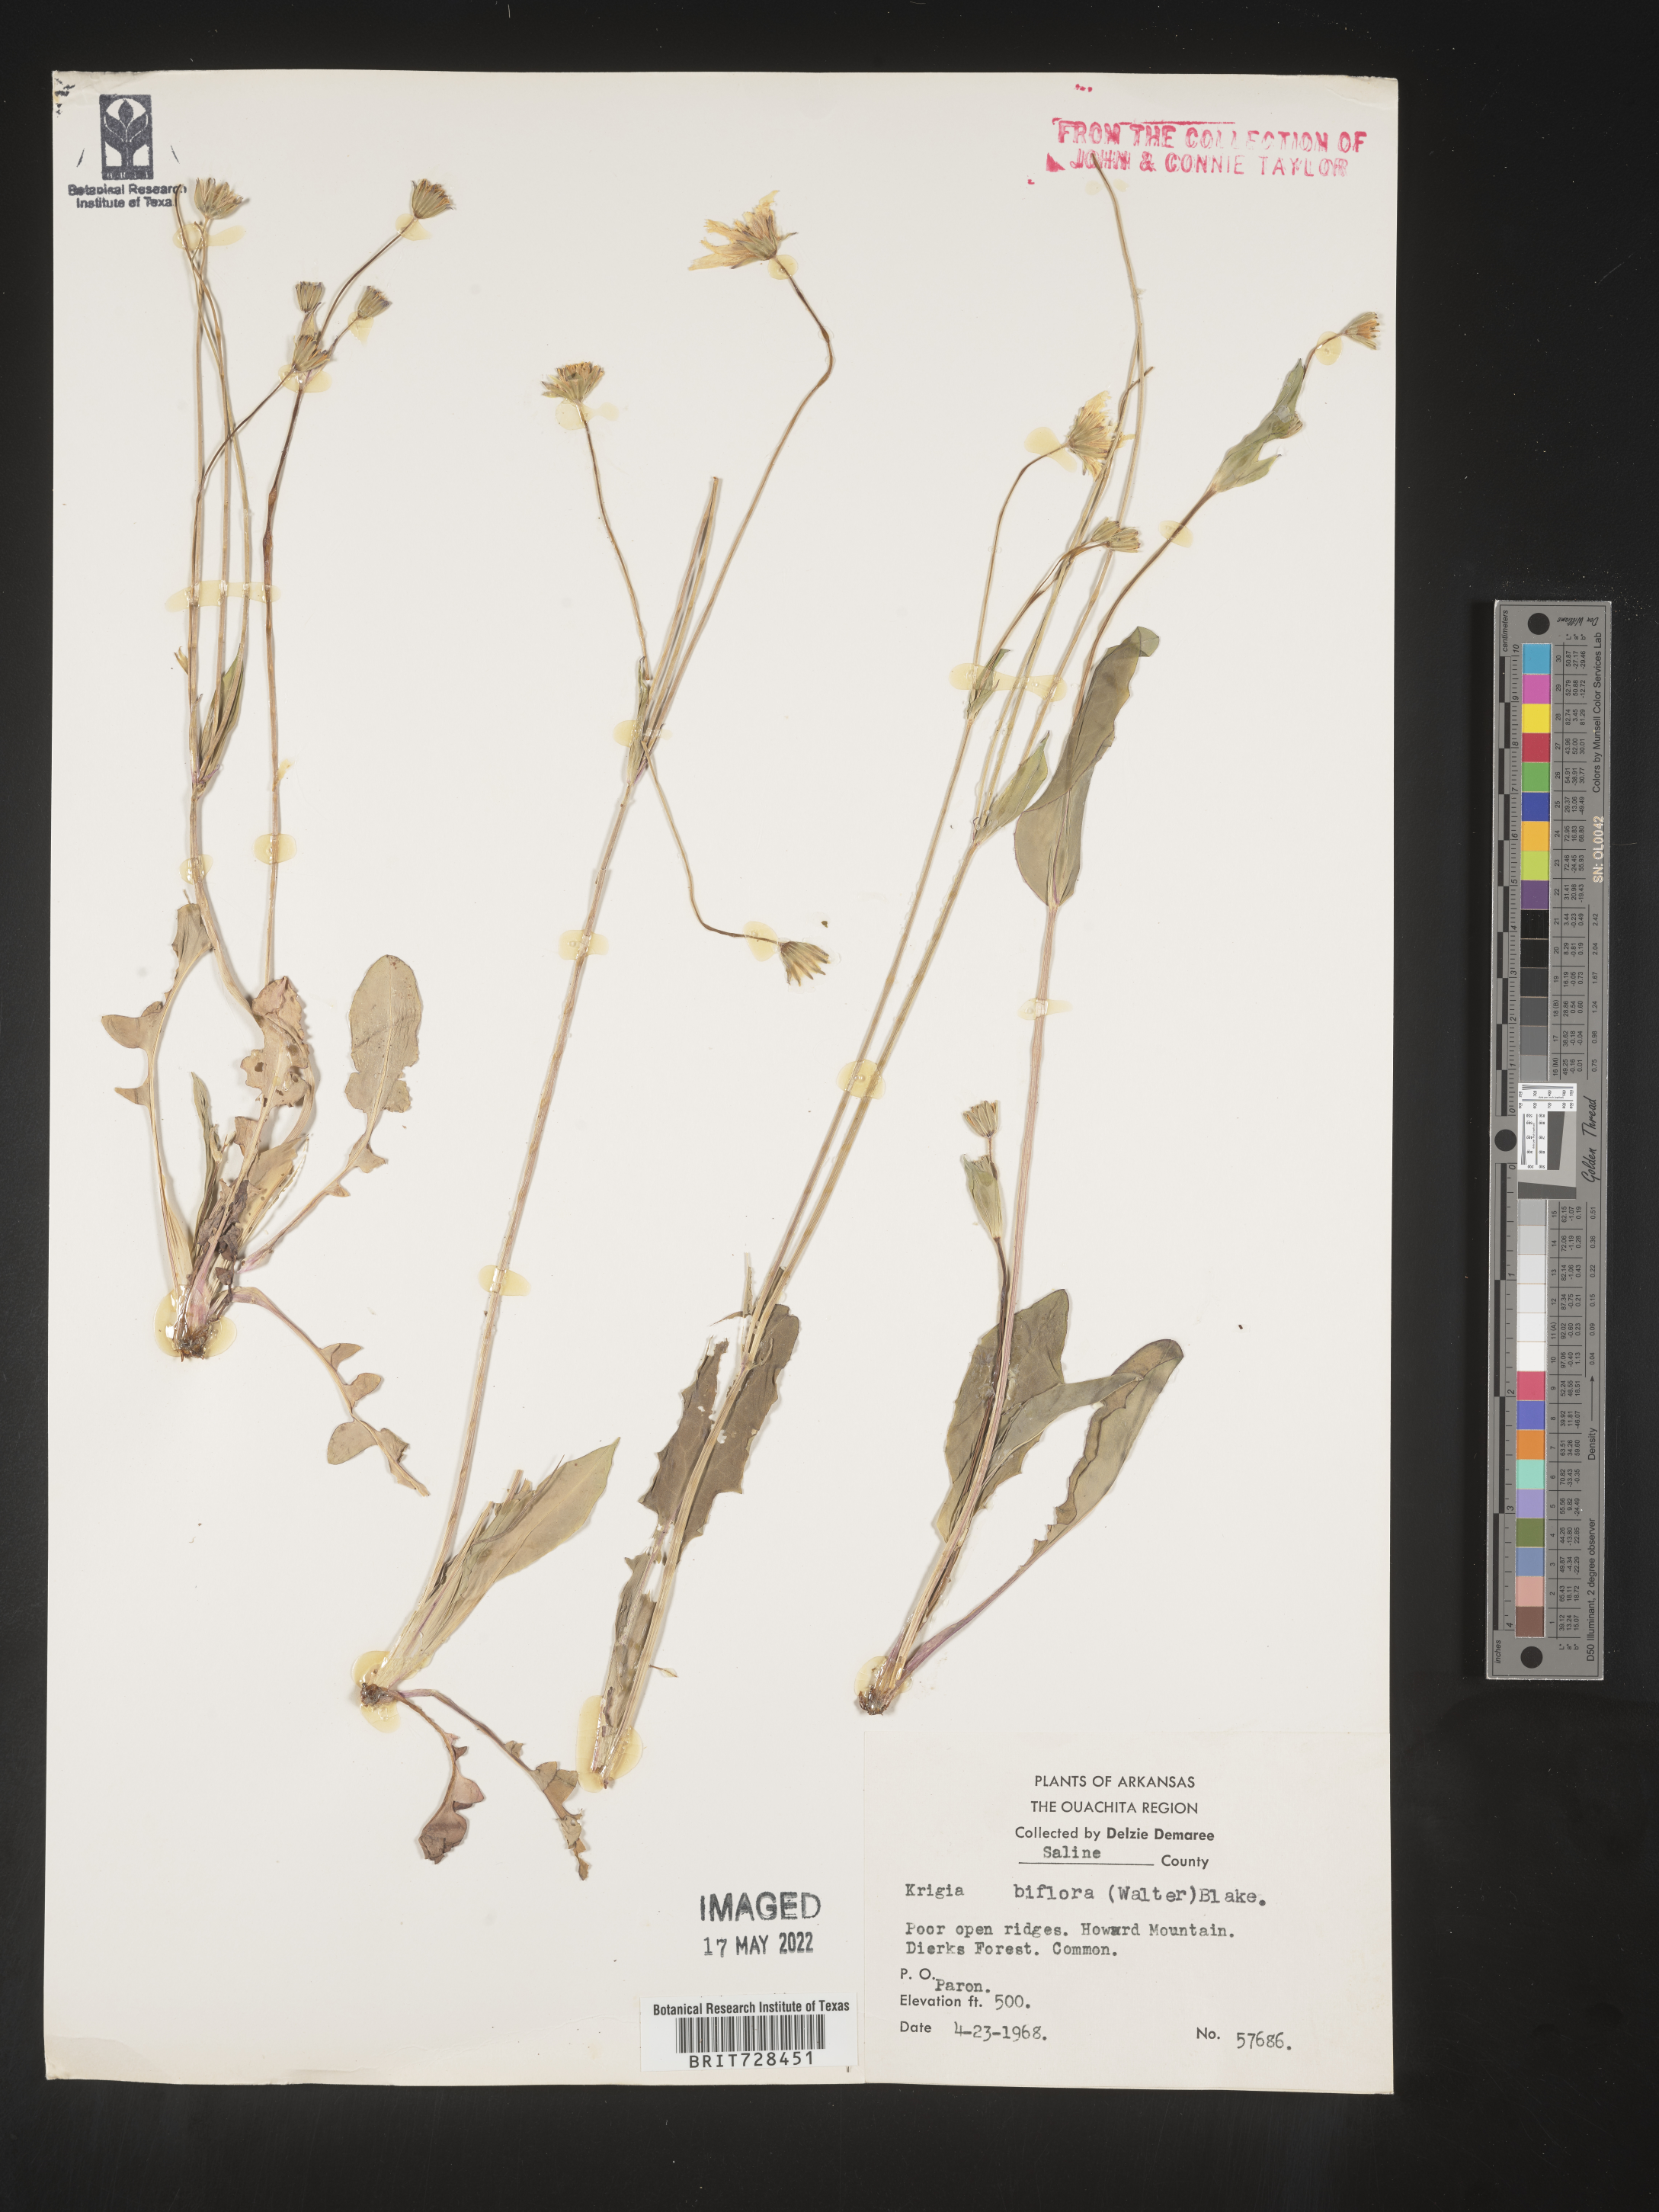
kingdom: Plantae
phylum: Tracheophyta
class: Magnoliopsida
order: Asterales
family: Asteraceae
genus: Krigia
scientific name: Krigia biflora
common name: Orange dwarf-dandelion
